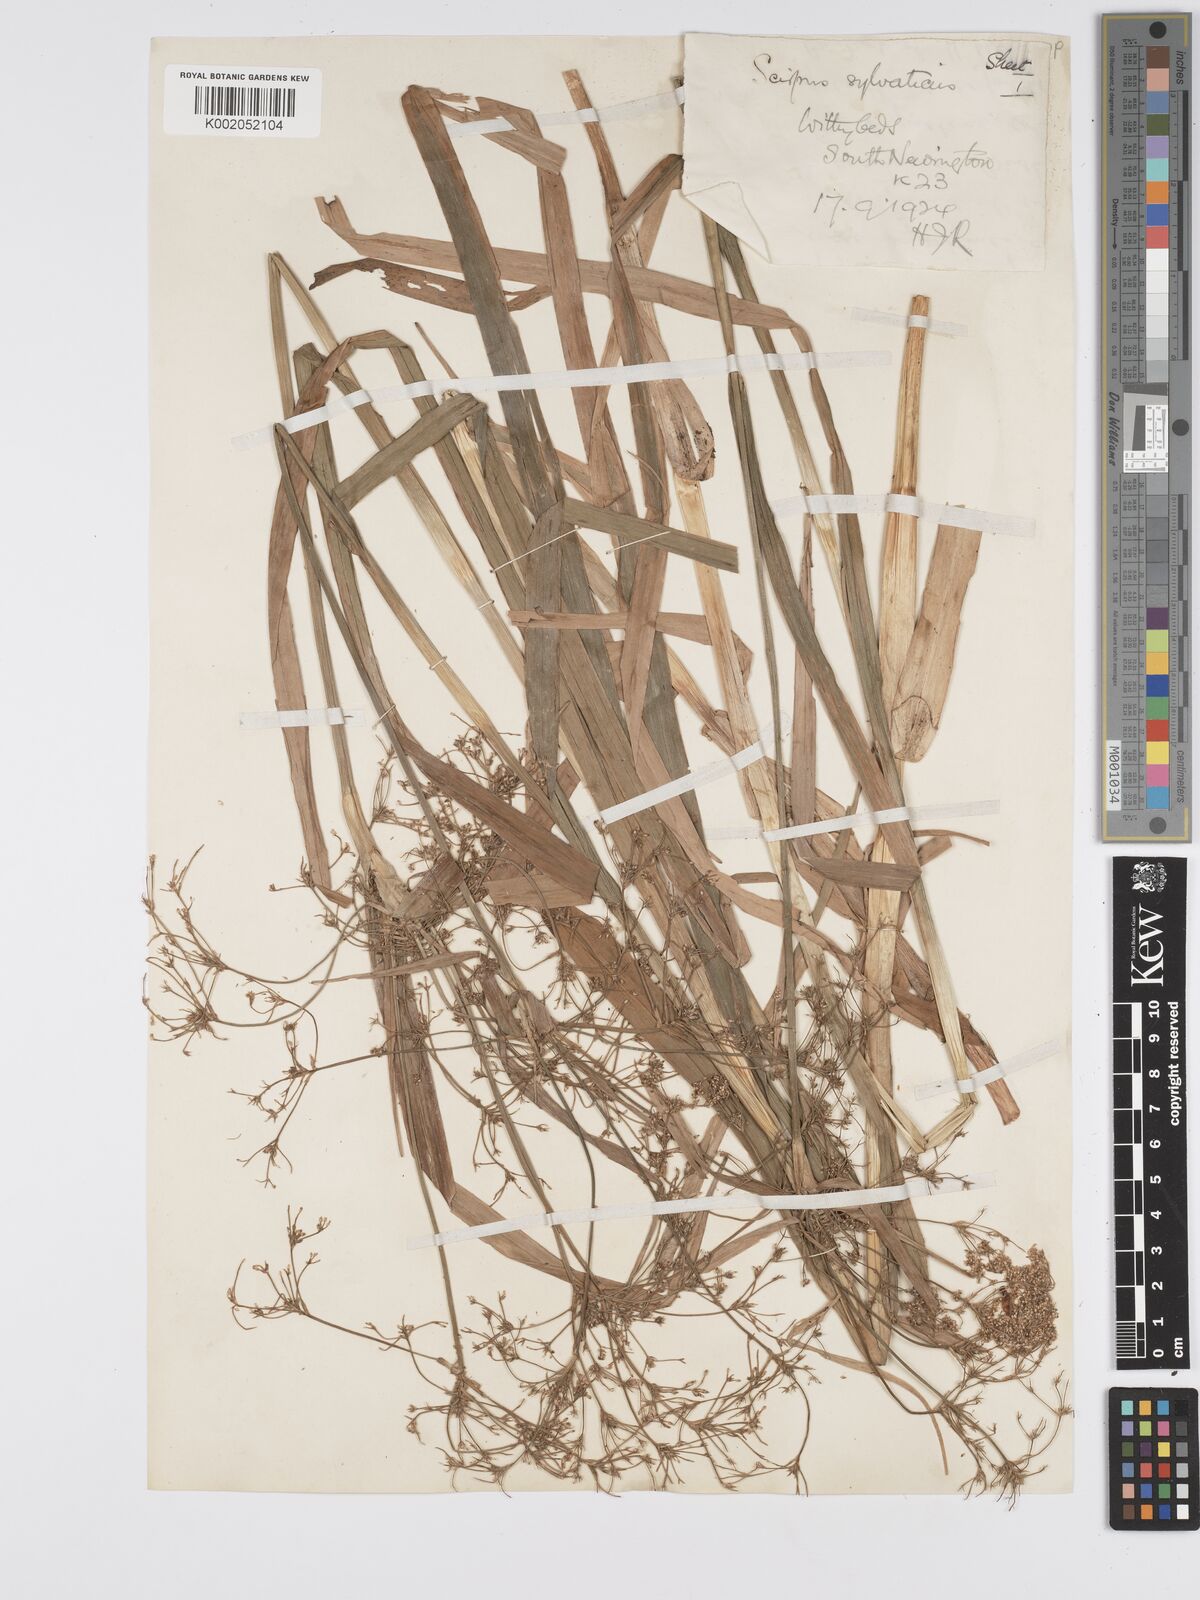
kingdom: Plantae
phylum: Tracheophyta
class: Liliopsida
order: Poales
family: Cyperaceae
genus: Scirpus
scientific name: Scirpus sylvaticus
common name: Wood club-rush
